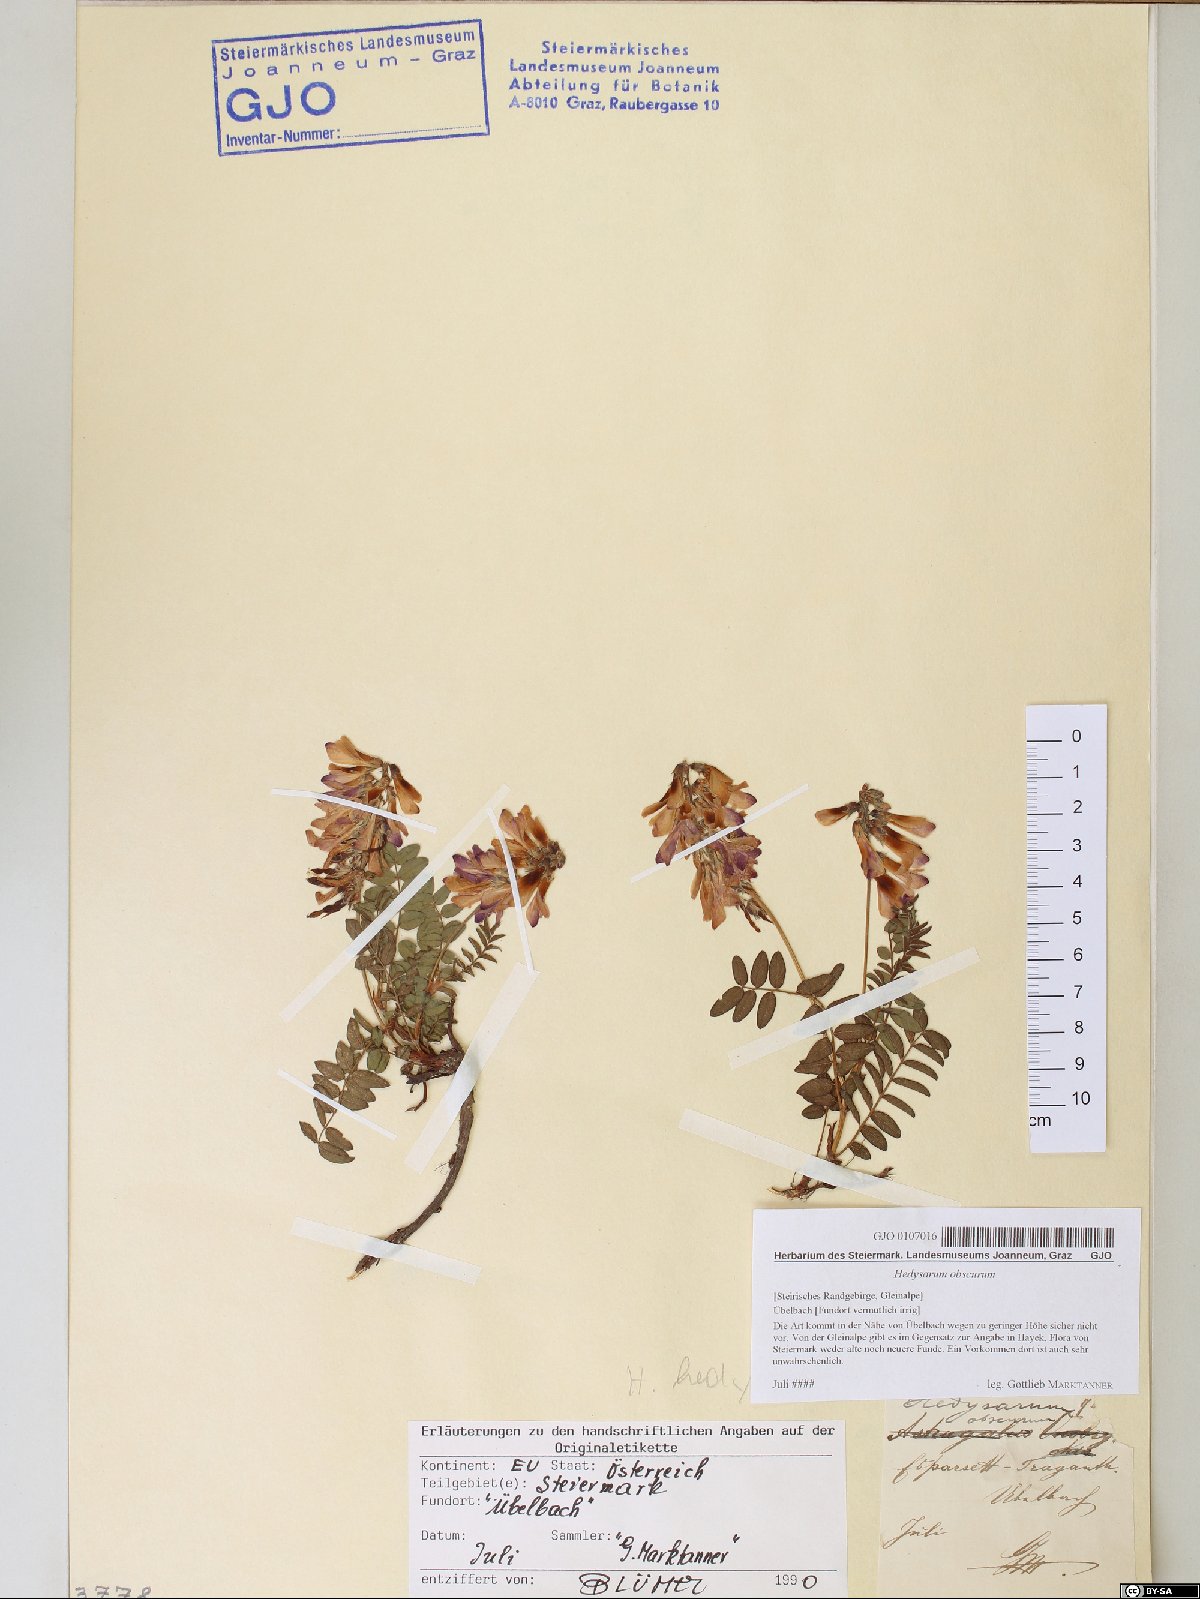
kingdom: Plantae
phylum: Tracheophyta
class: Magnoliopsida
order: Fabales
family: Fabaceae
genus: Hedysarum
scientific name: Hedysarum hedysaroides
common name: Alpine french-honeysuckle
